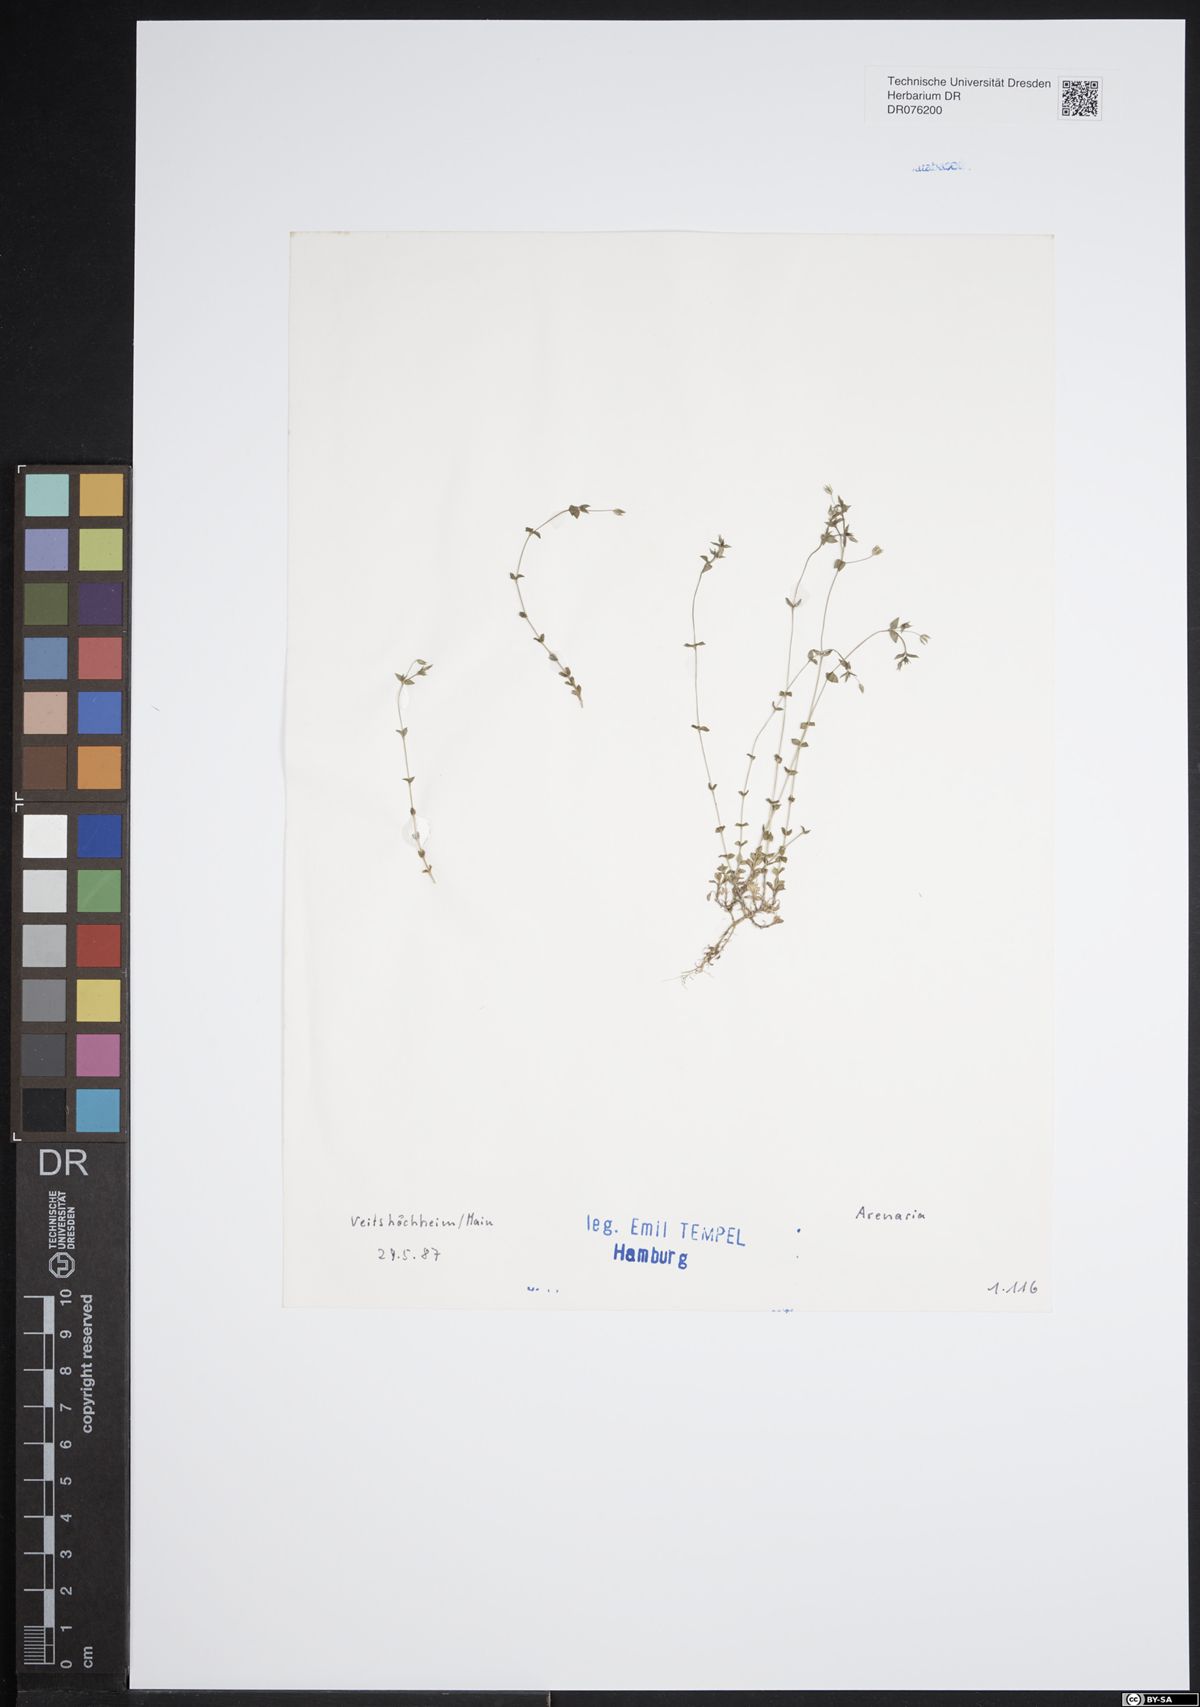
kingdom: Plantae
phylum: Tracheophyta
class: Magnoliopsida
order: Caryophyllales
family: Caryophyllaceae
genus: Arenaria
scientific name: Arenaria
